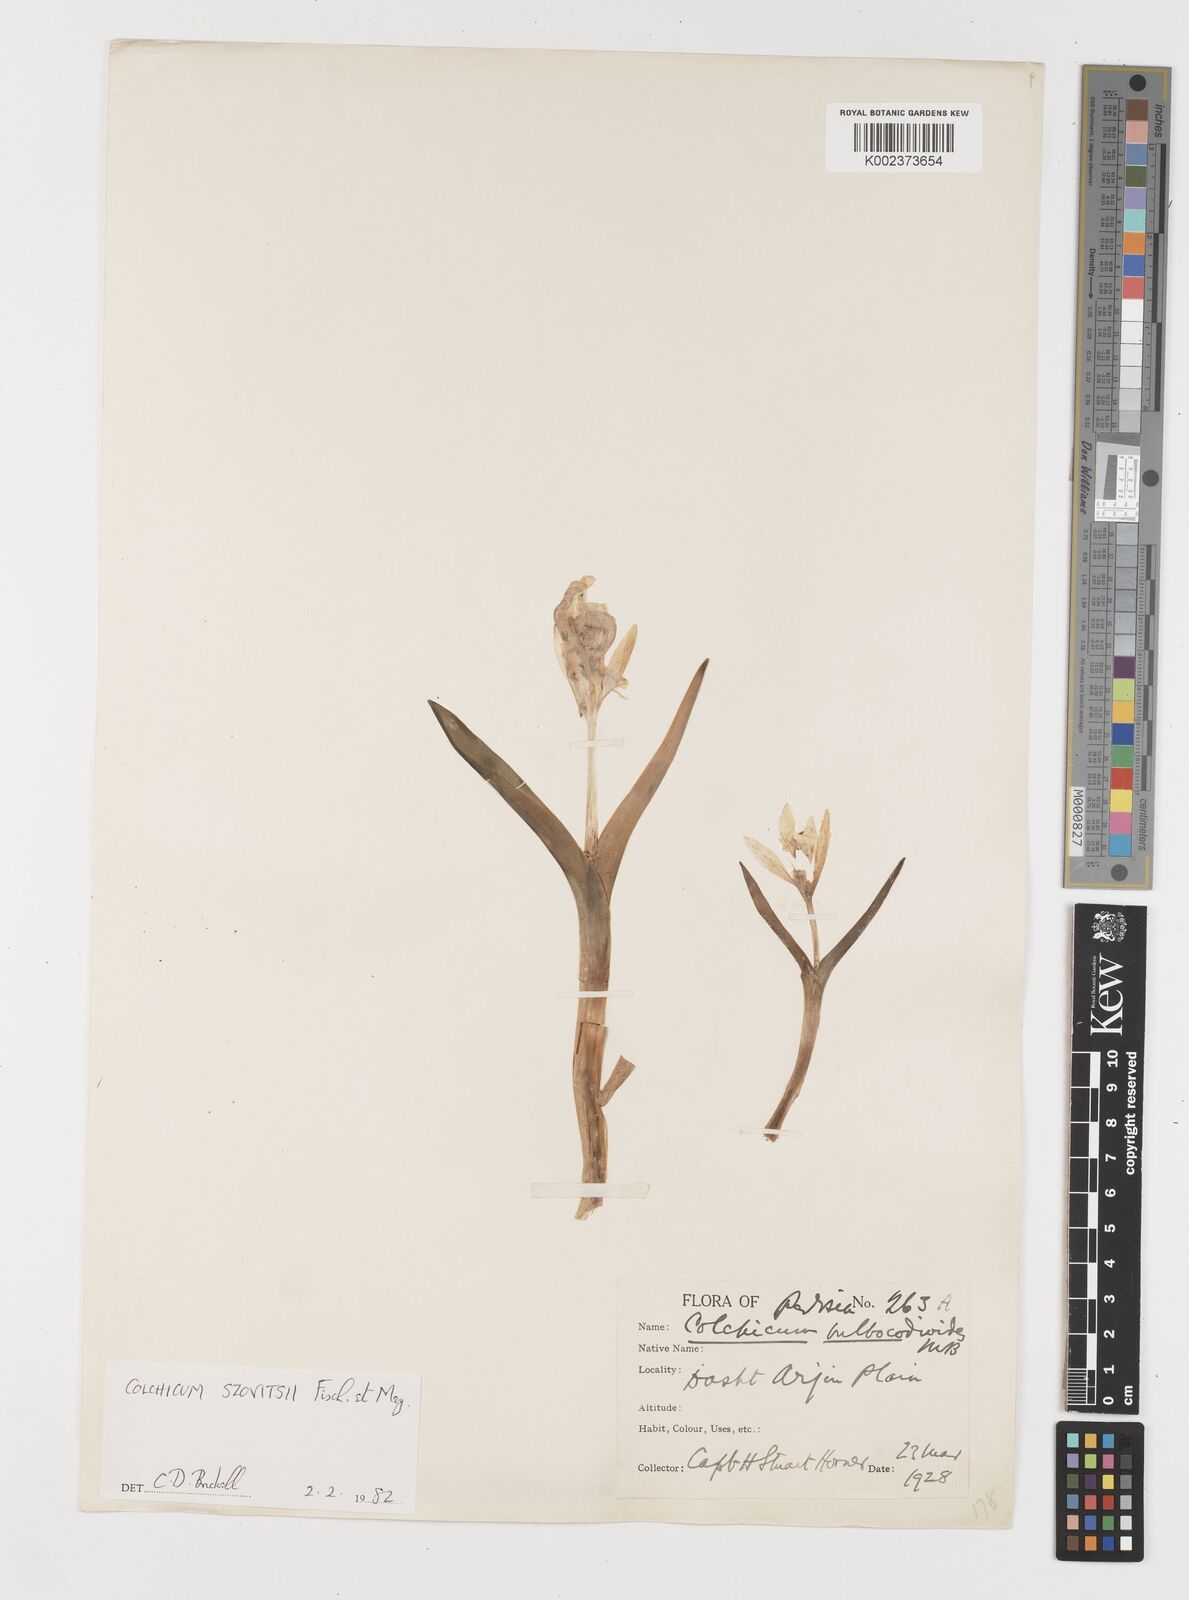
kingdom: Plantae
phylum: Tracheophyta
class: Liliopsida
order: Liliales
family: Colchicaceae
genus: Colchicum
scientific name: Colchicum szovitsii
